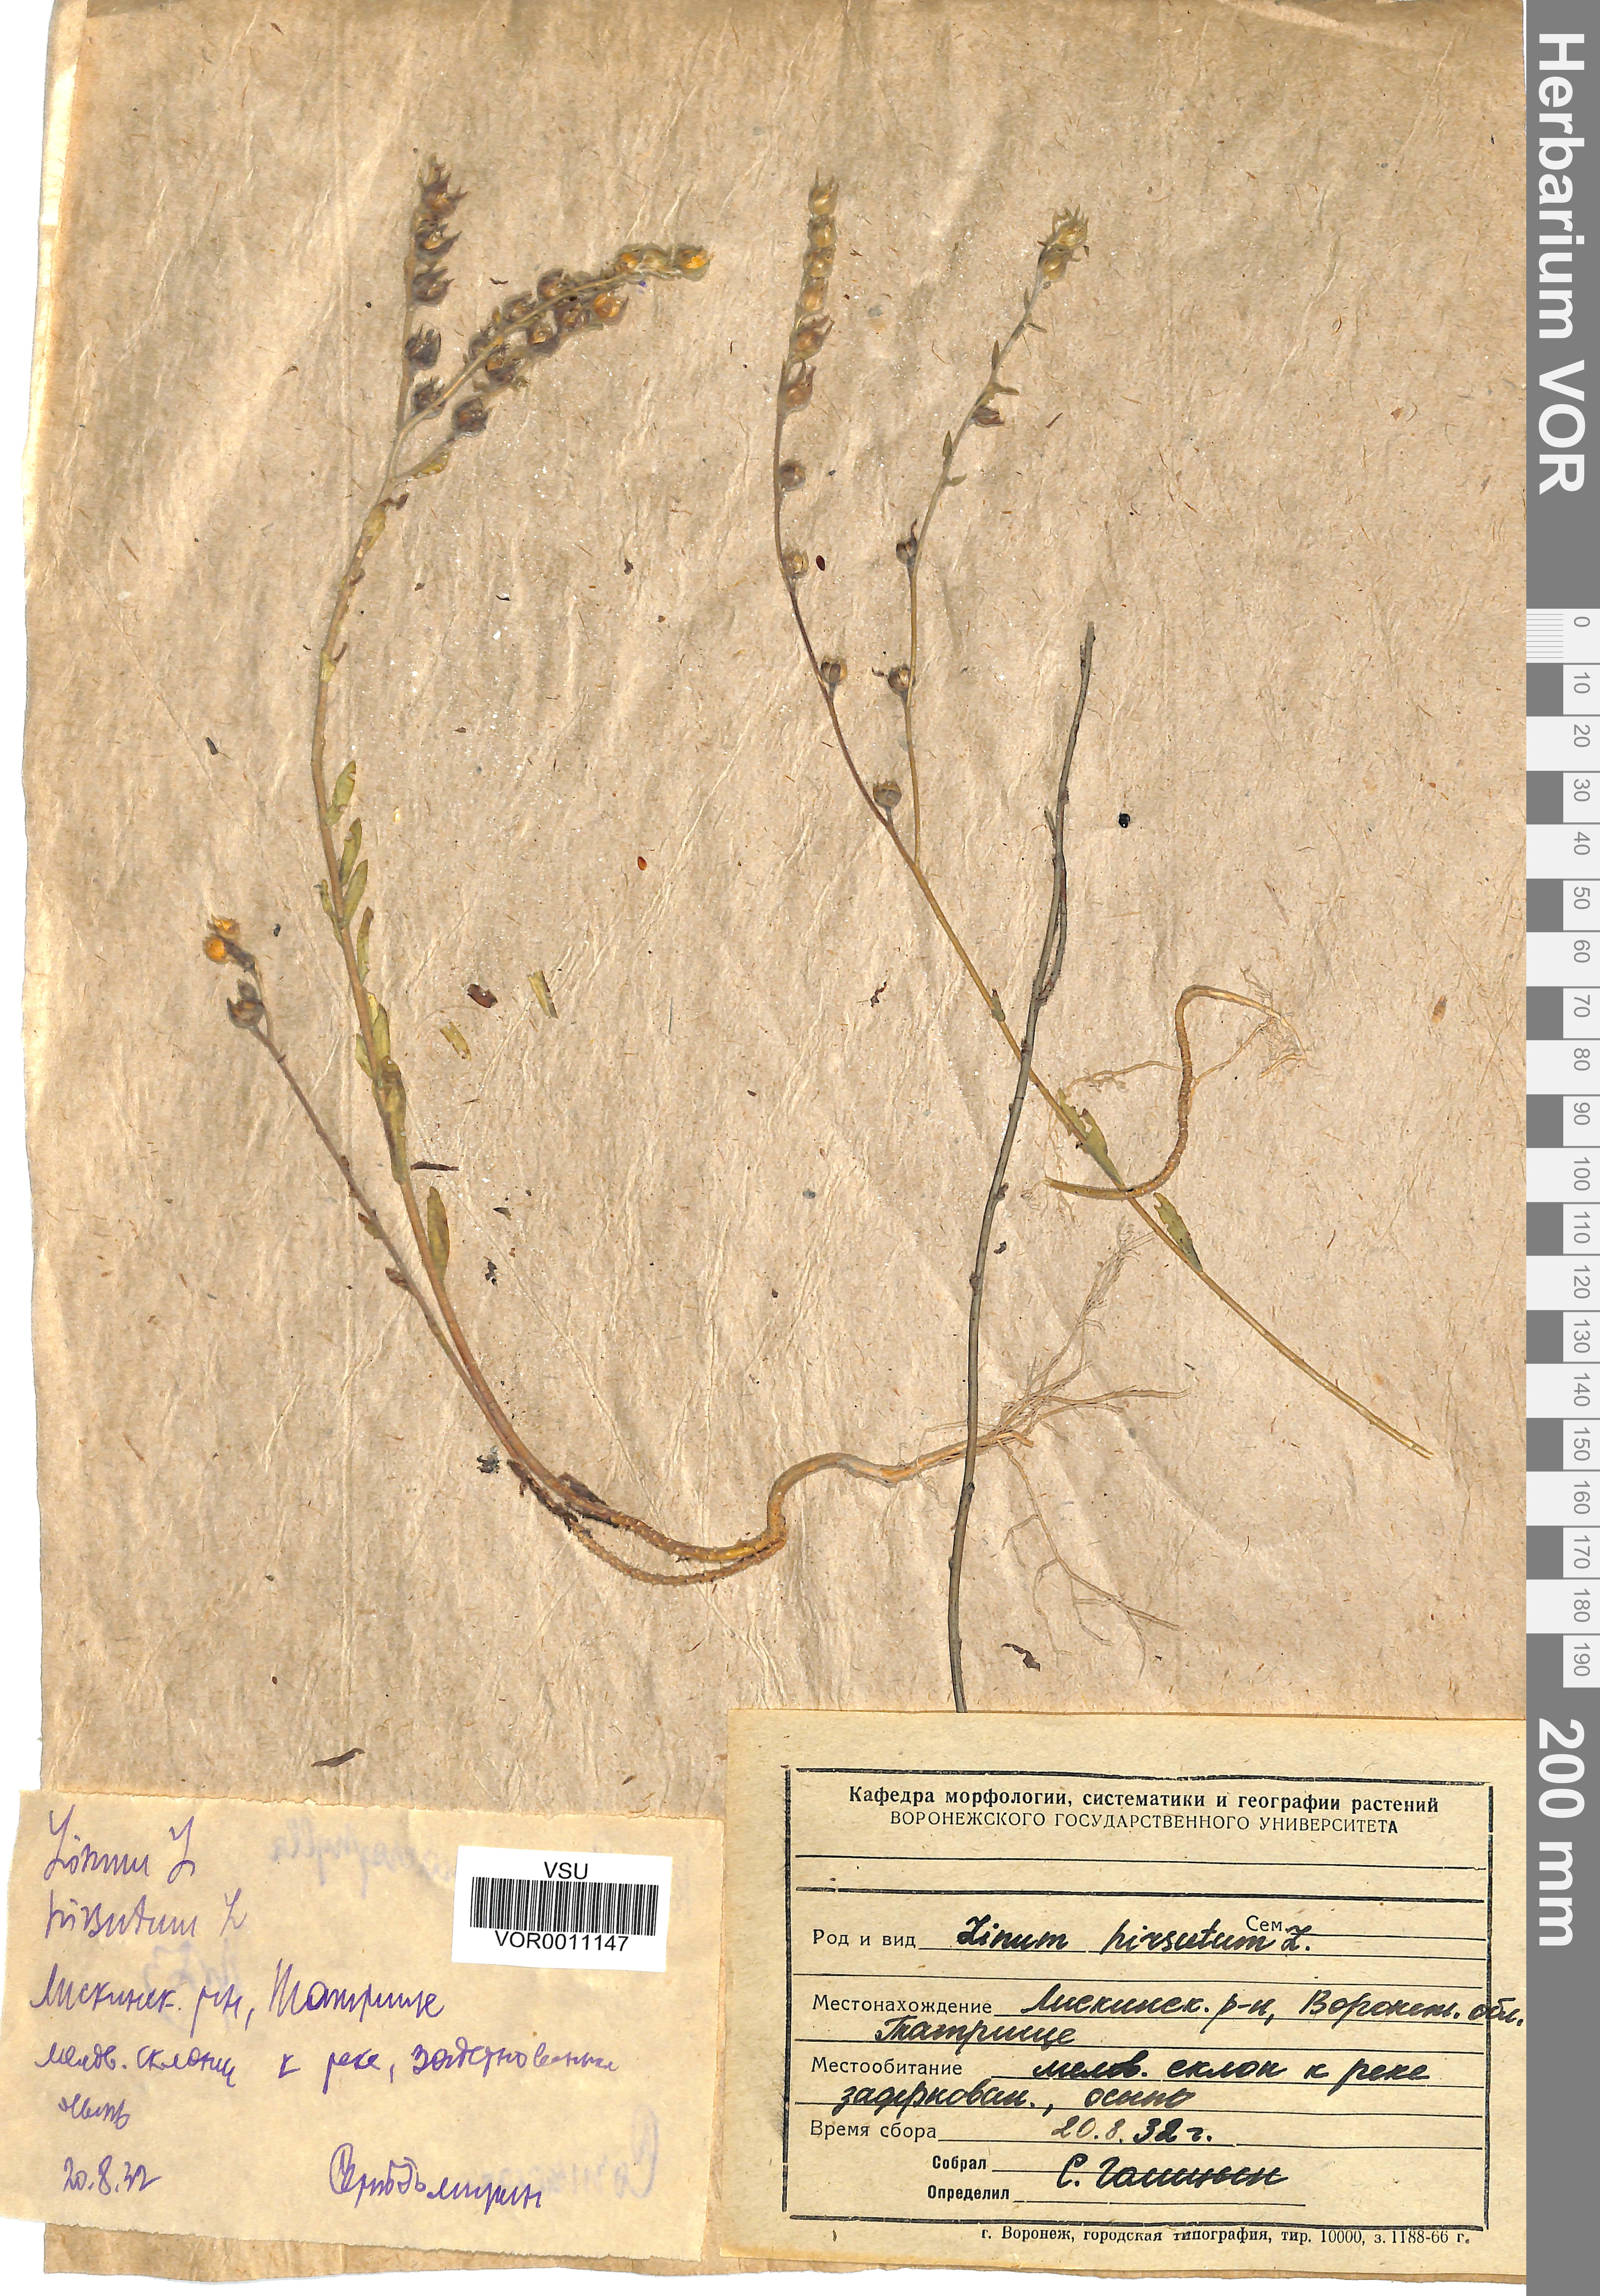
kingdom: Plantae
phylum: Tracheophyta
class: Magnoliopsida
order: Malpighiales
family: Linaceae
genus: Linum
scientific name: Linum hirsutum
